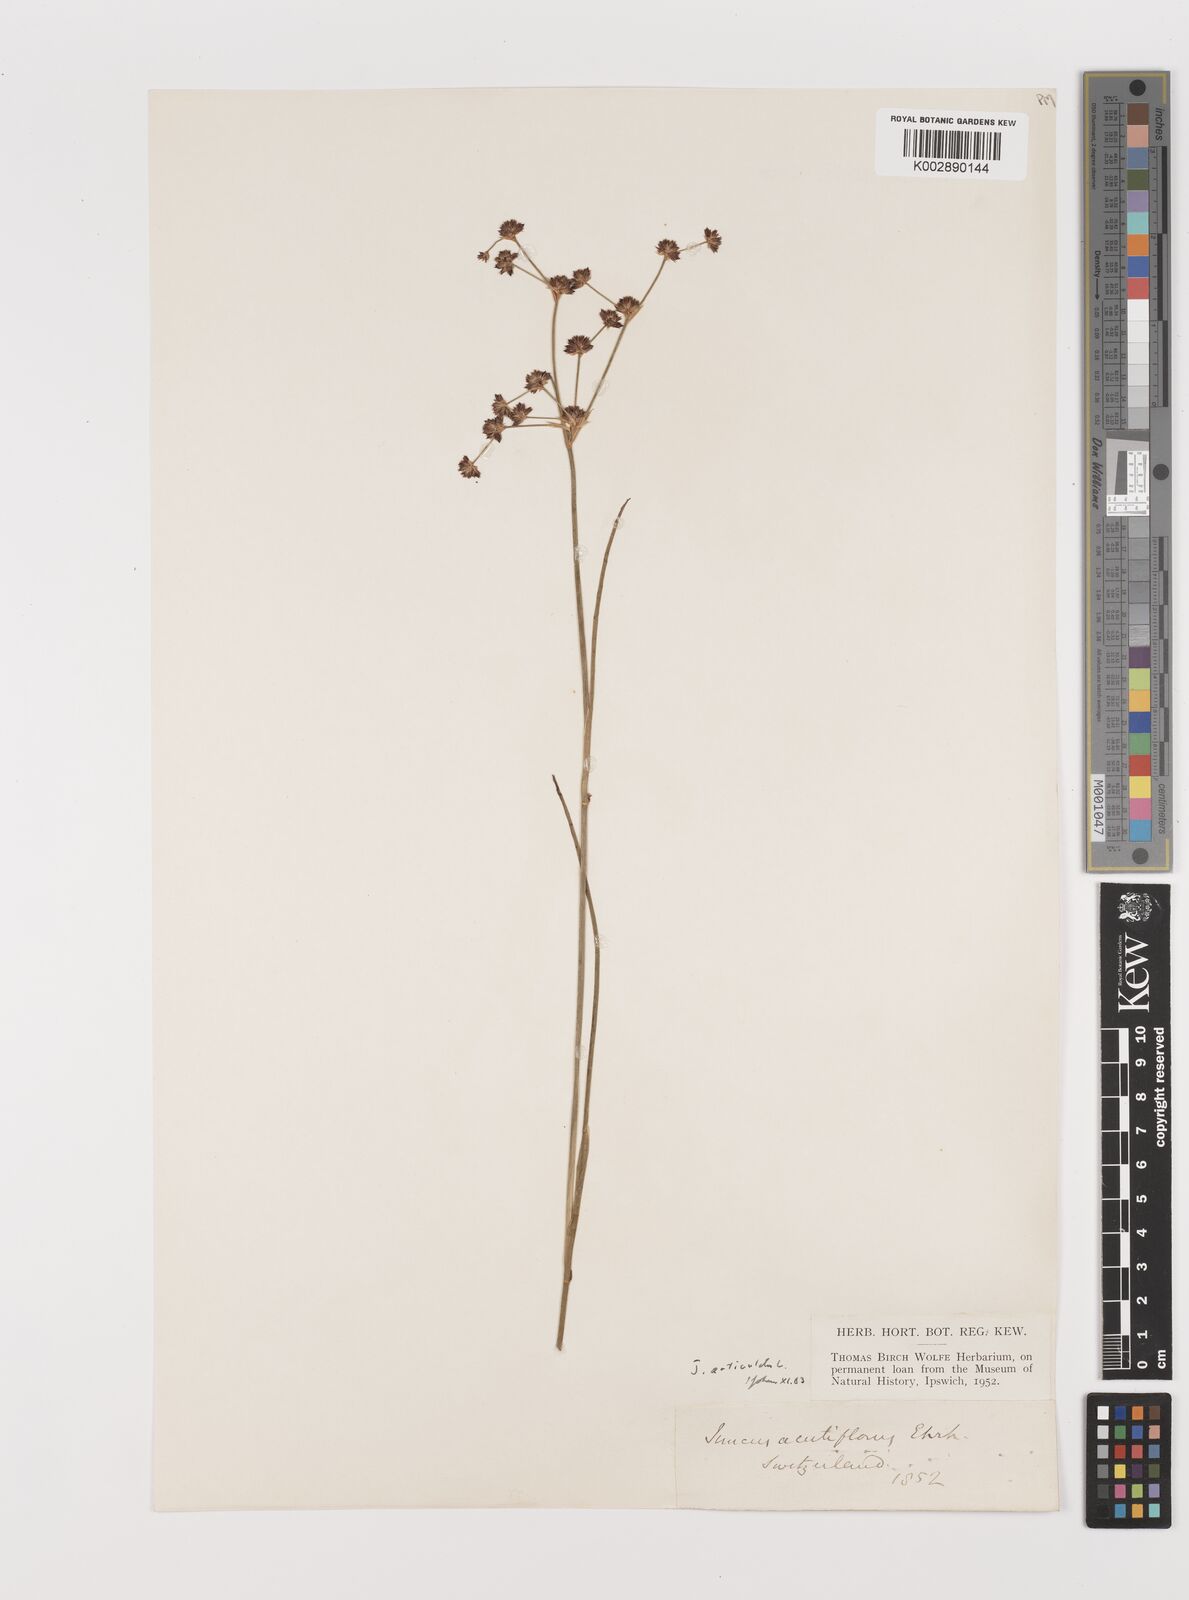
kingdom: Plantae
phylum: Tracheophyta
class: Liliopsida
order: Poales
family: Juncaceae
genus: Juncus
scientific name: Juncus articulatus
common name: Jointed rush
